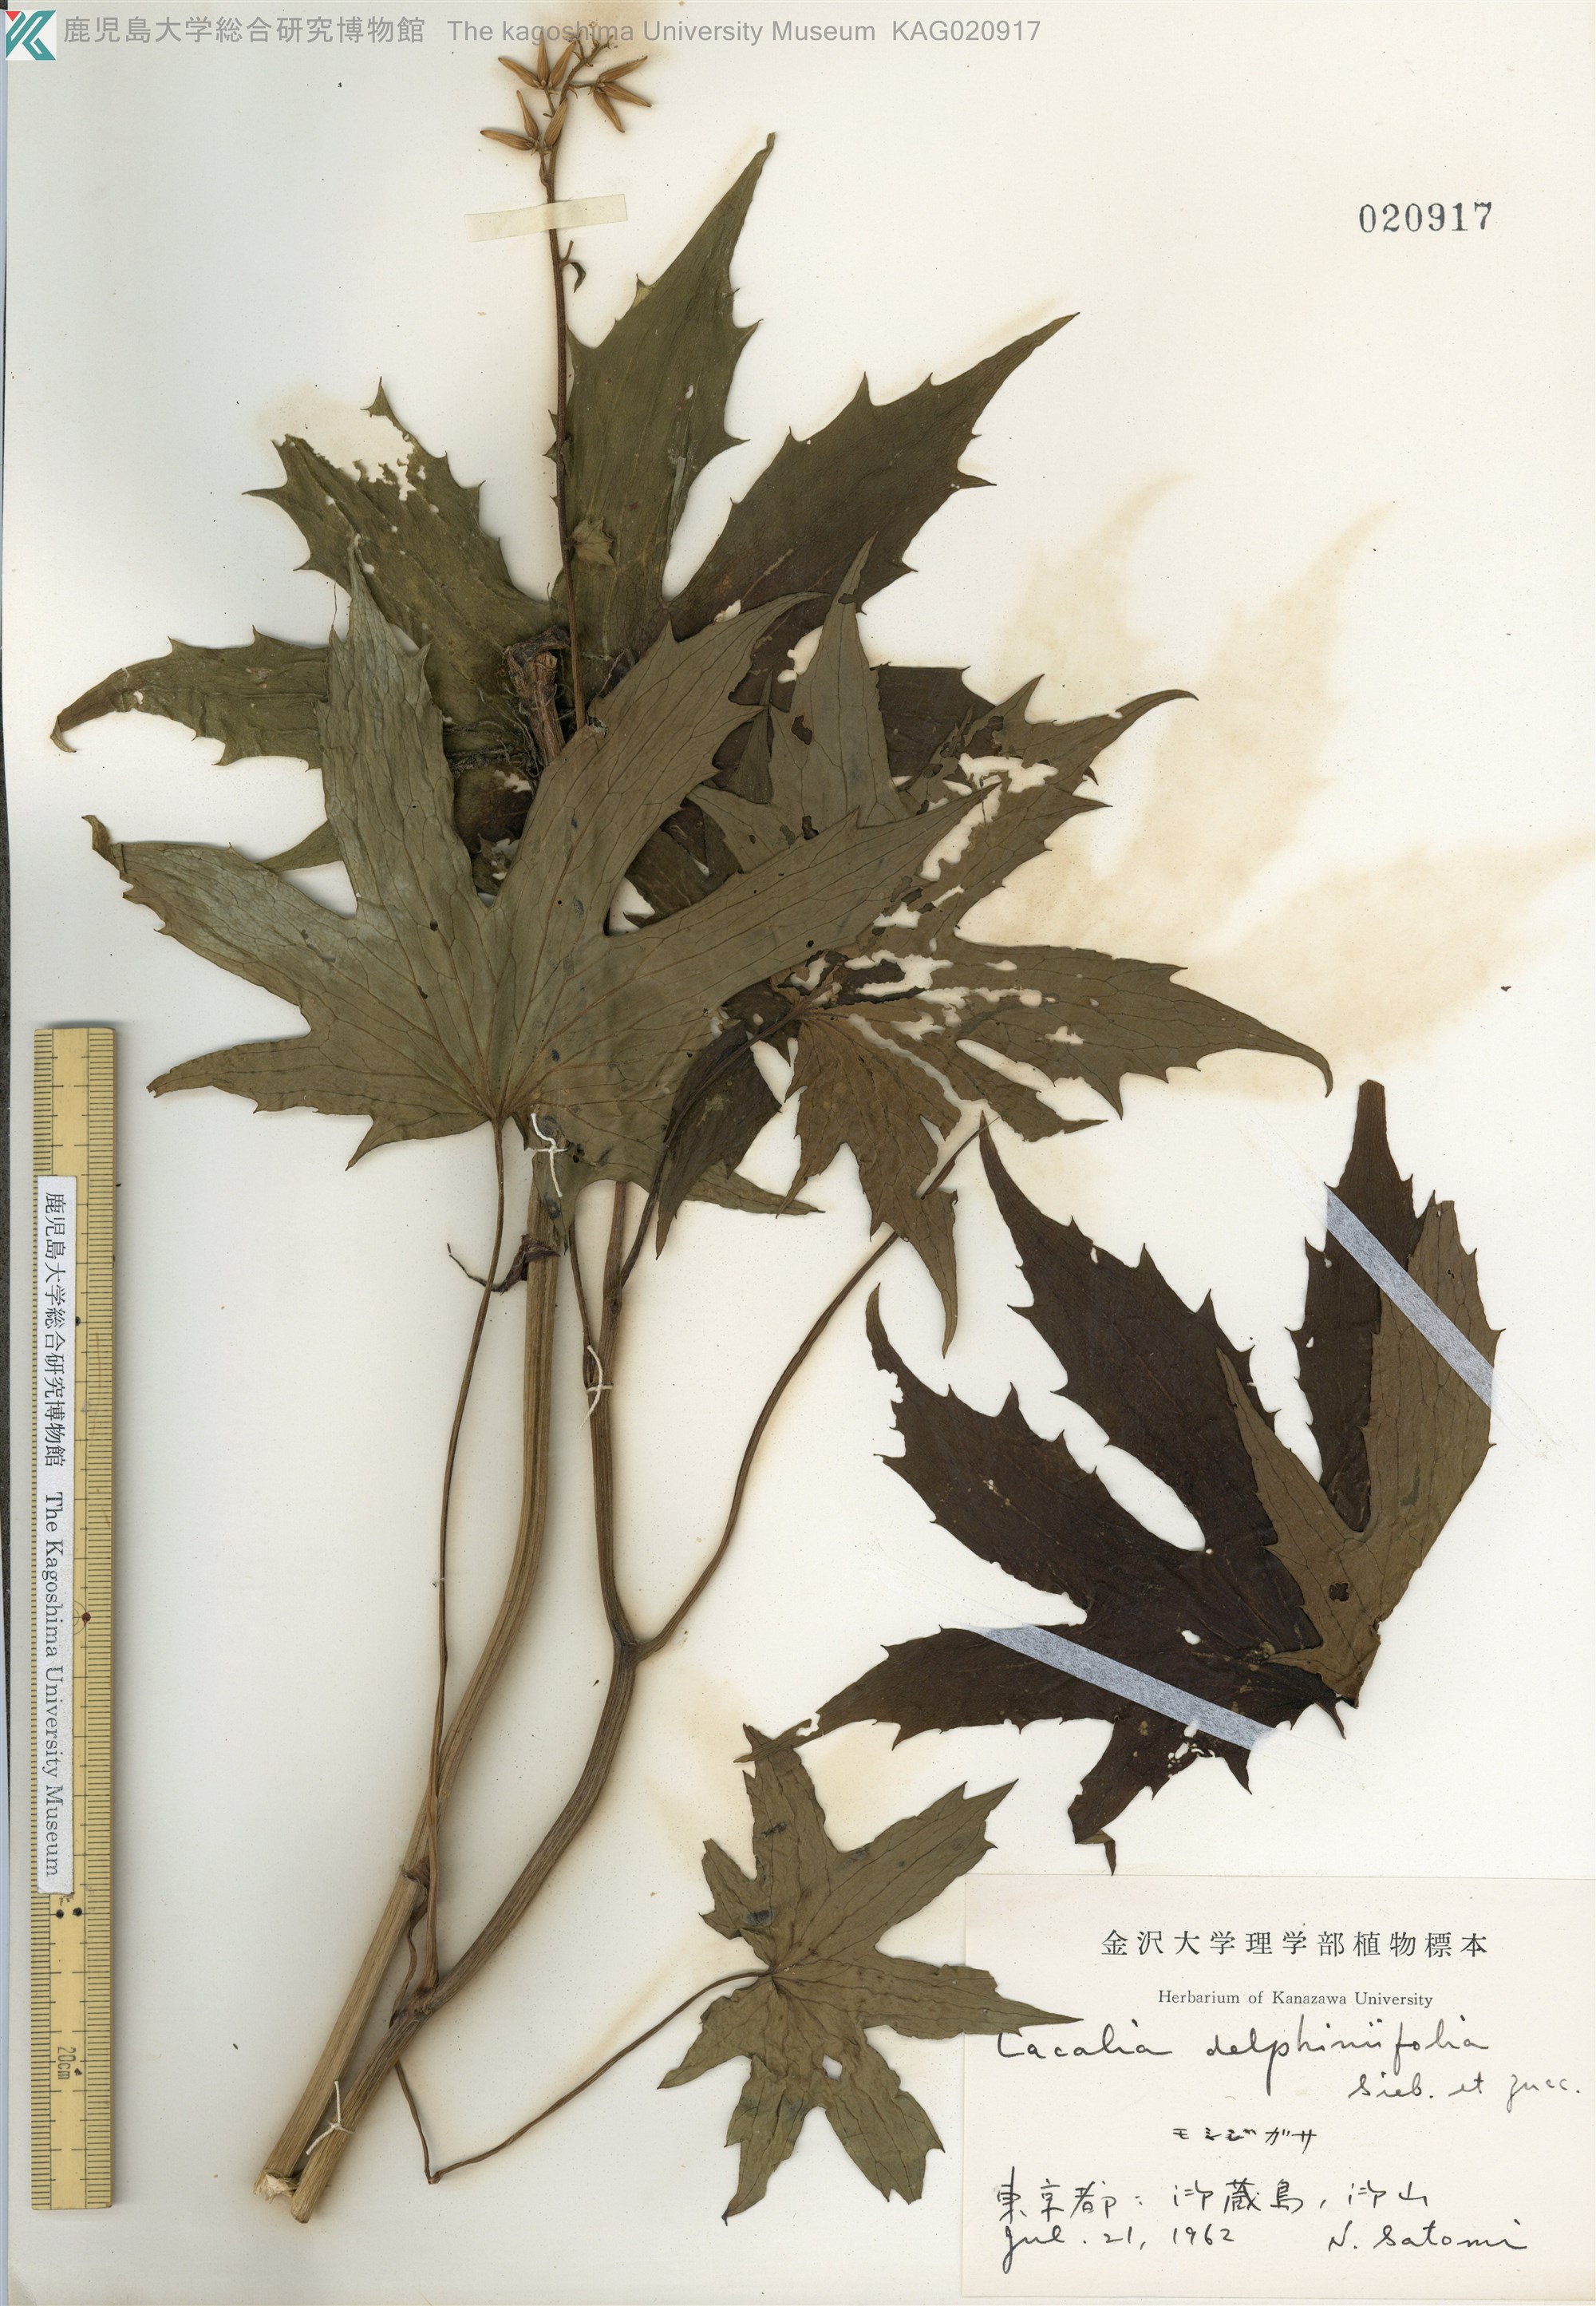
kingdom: Plantae
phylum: Tracheophyta
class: Magnoliopsida
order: Asterales
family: Asteraceae
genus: Japonicalia
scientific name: Japonicalia delphiniifolia
